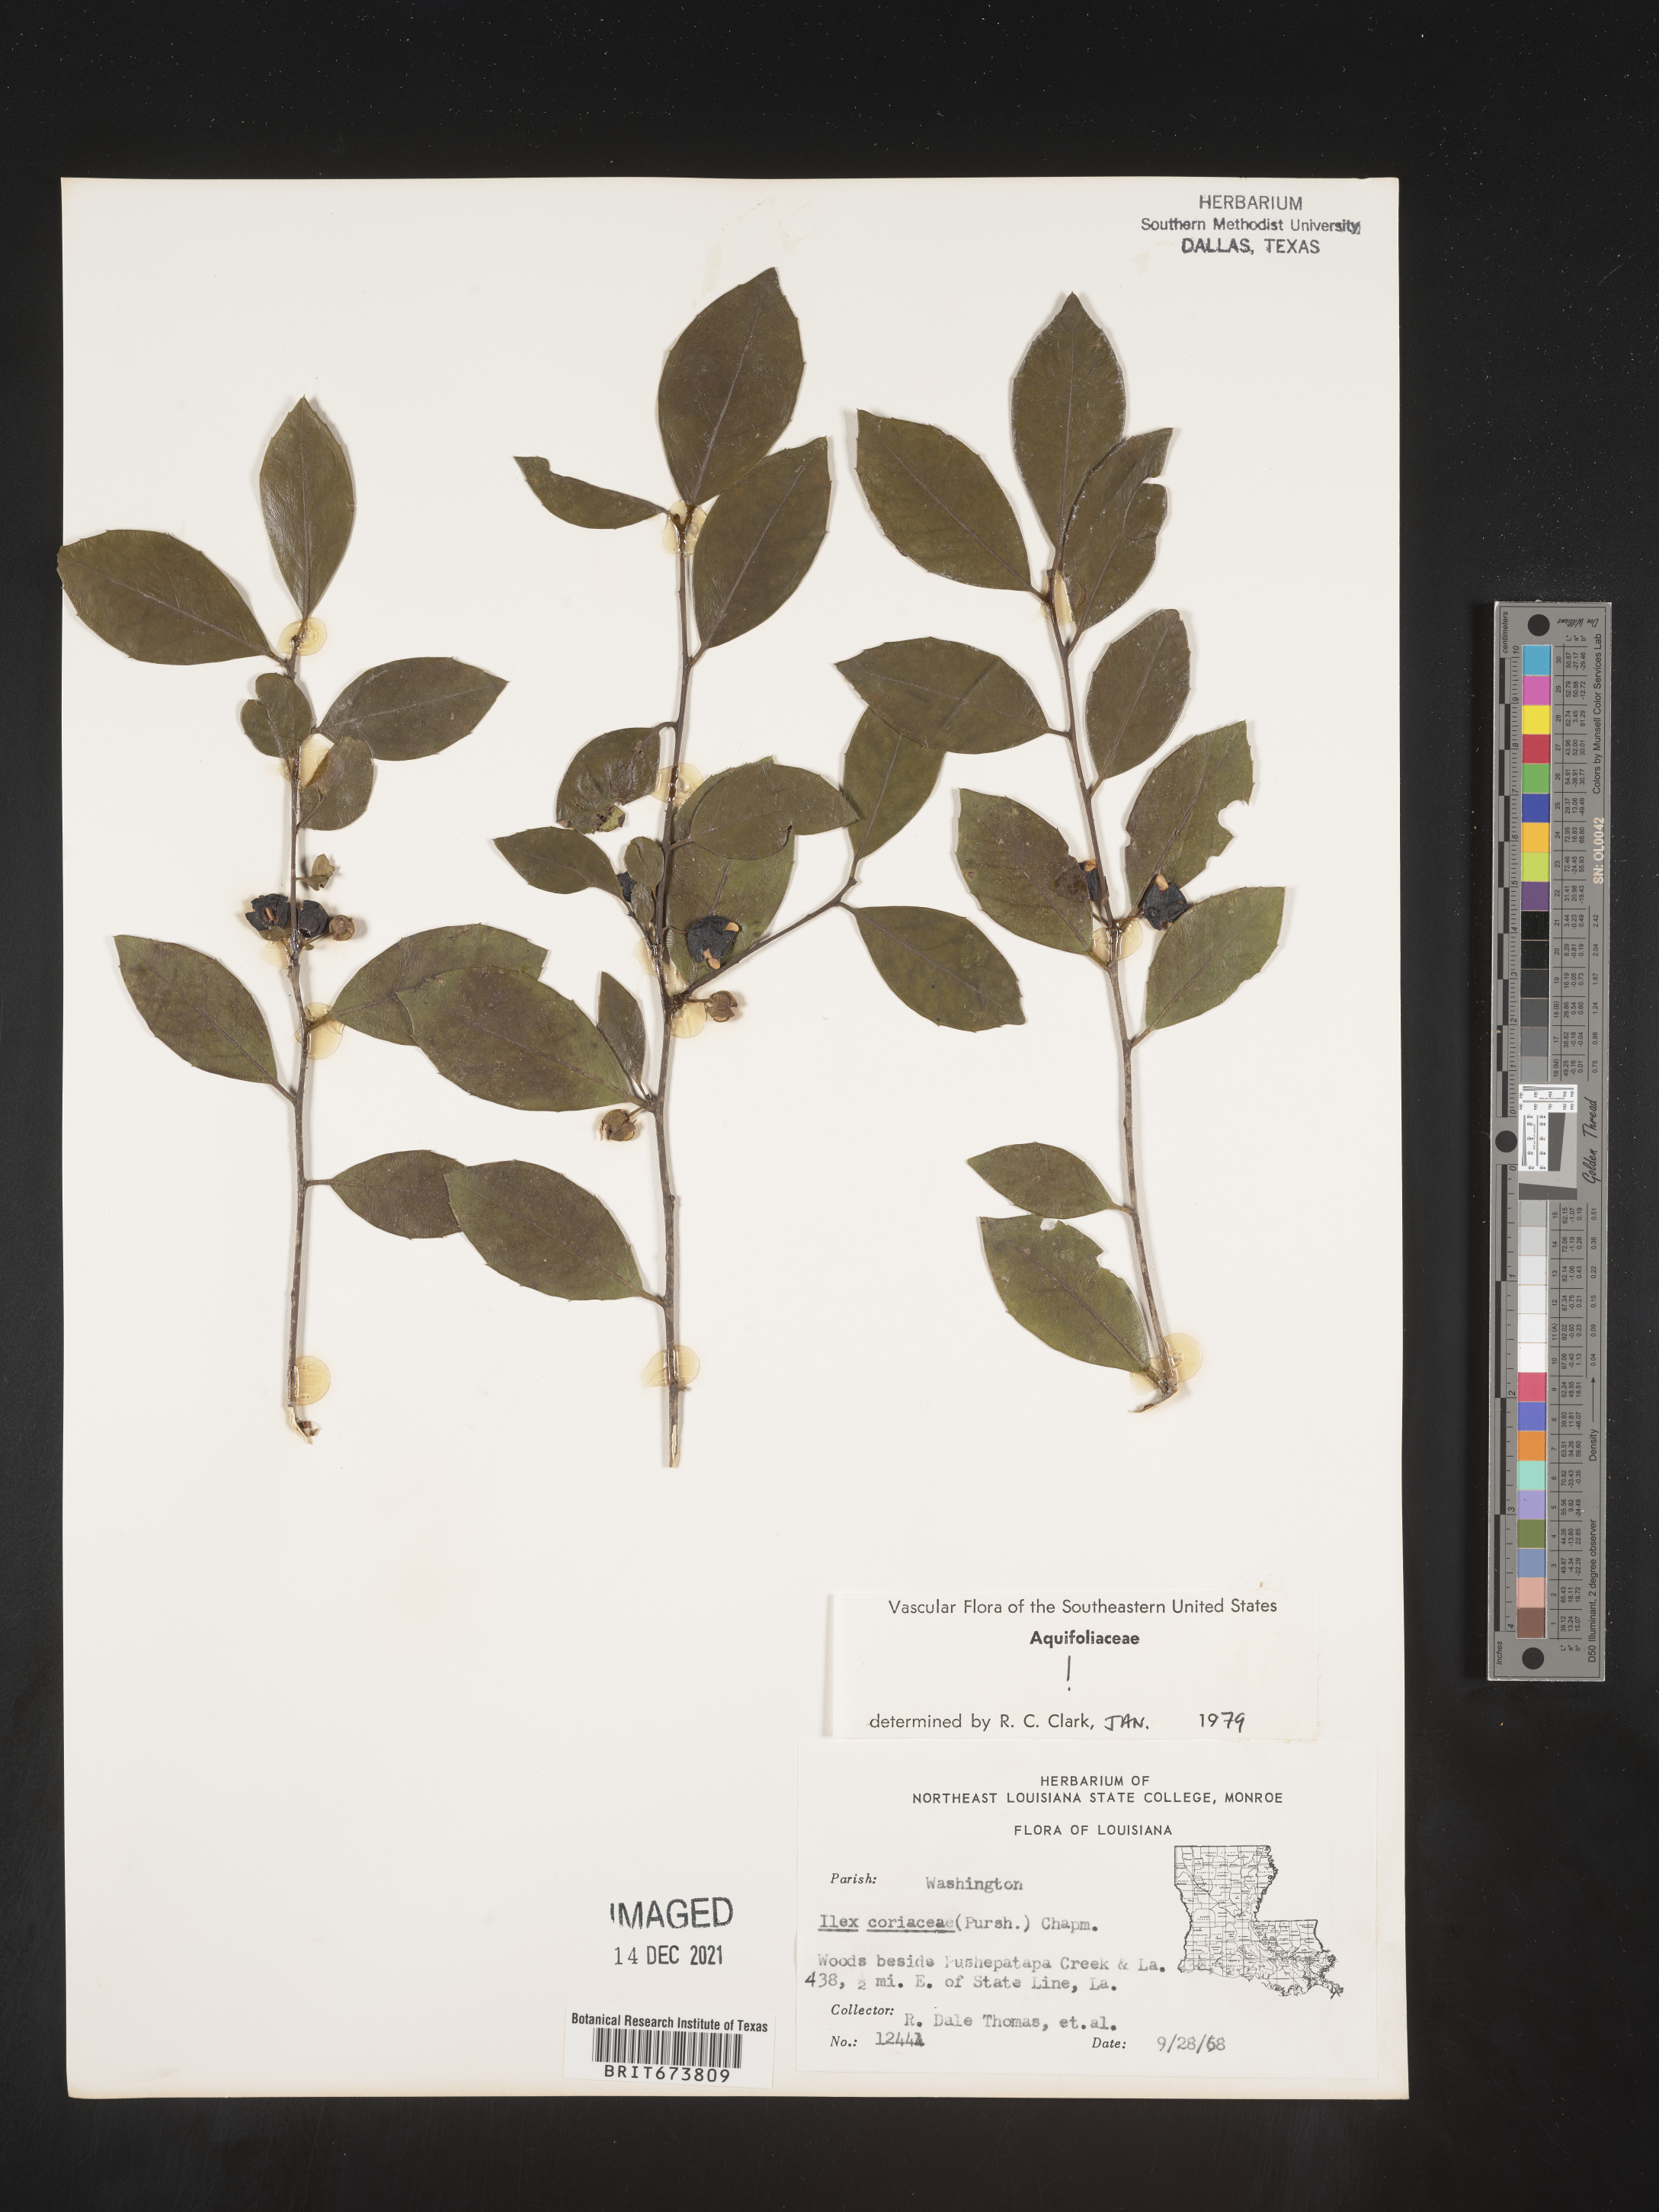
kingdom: Plantae
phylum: Tracheophyta
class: Magnoliopsida
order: Aquifoliales
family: Aquifoliaceae
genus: Ilex
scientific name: Ilex coriacea
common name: Sweet gallberry
